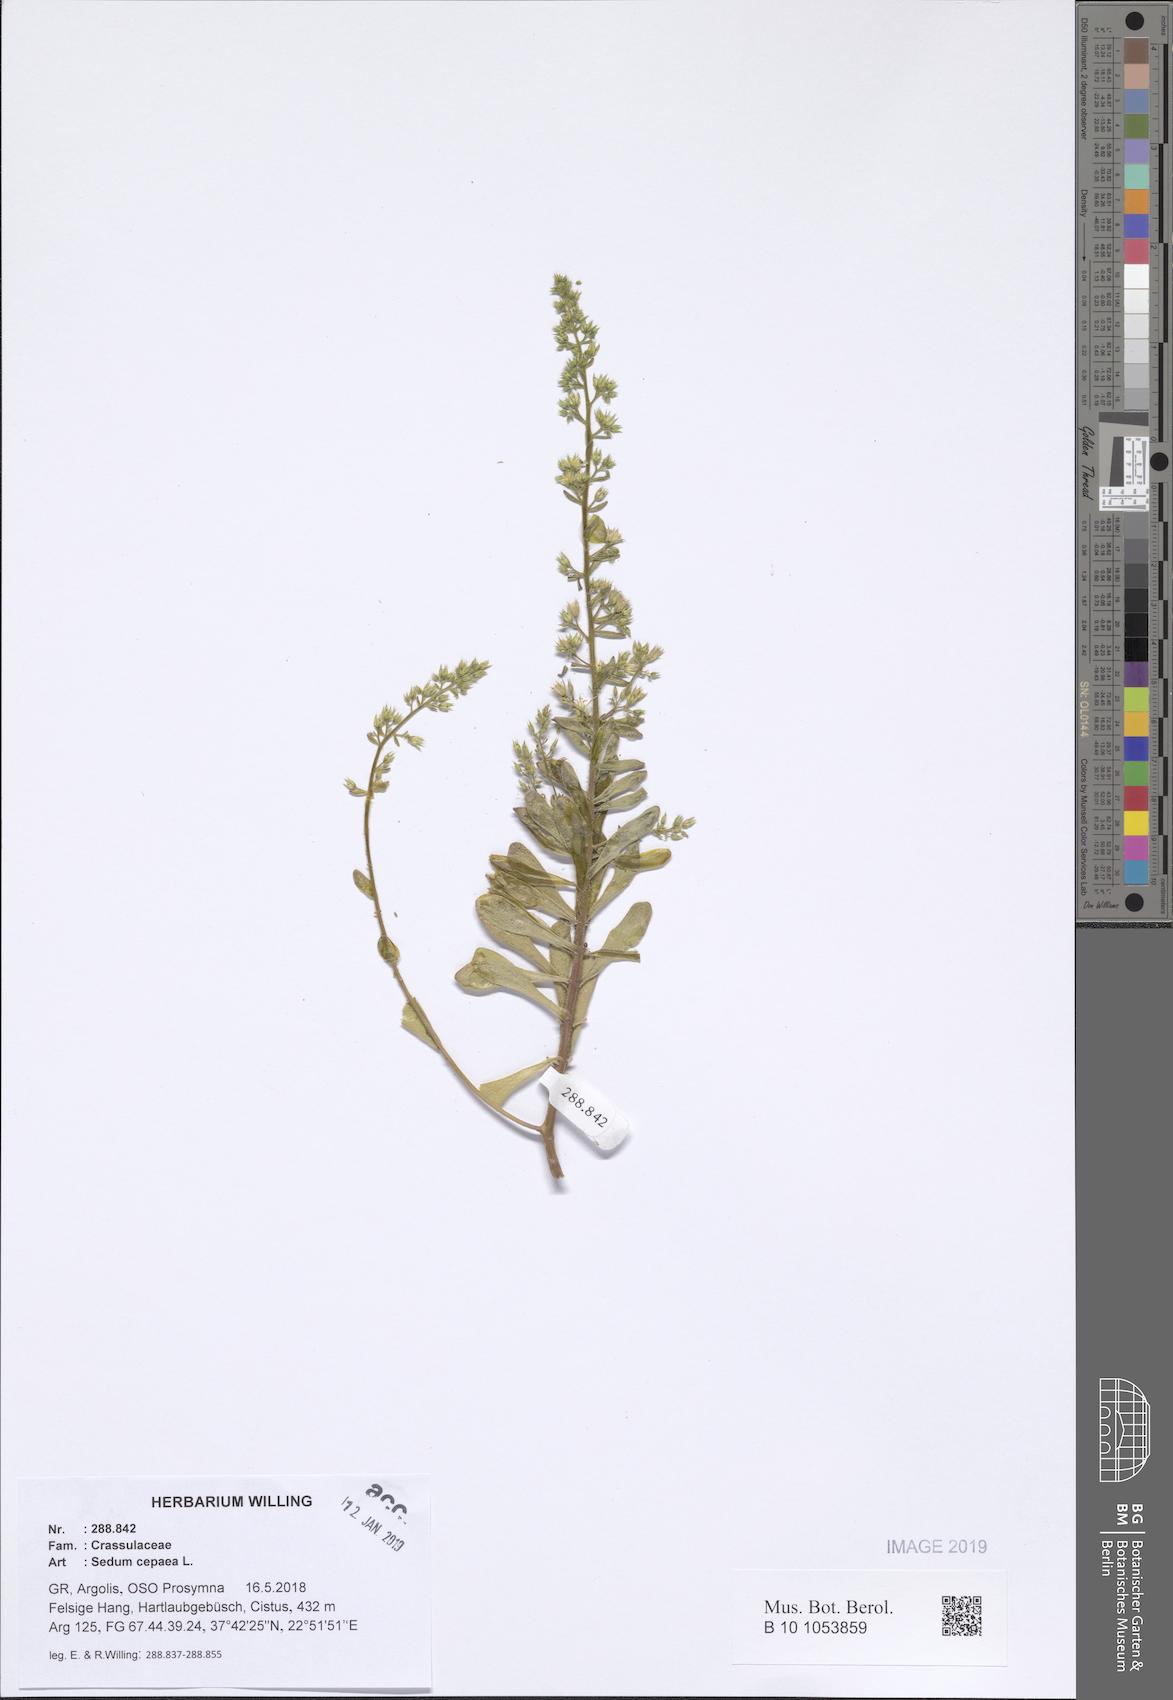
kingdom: Plantae
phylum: Tracheophyta
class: Magnoliopsida
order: Saxifragales
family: Crassulaceae
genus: Sedum
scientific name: Sedum cepaea
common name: Pink stonecrop
